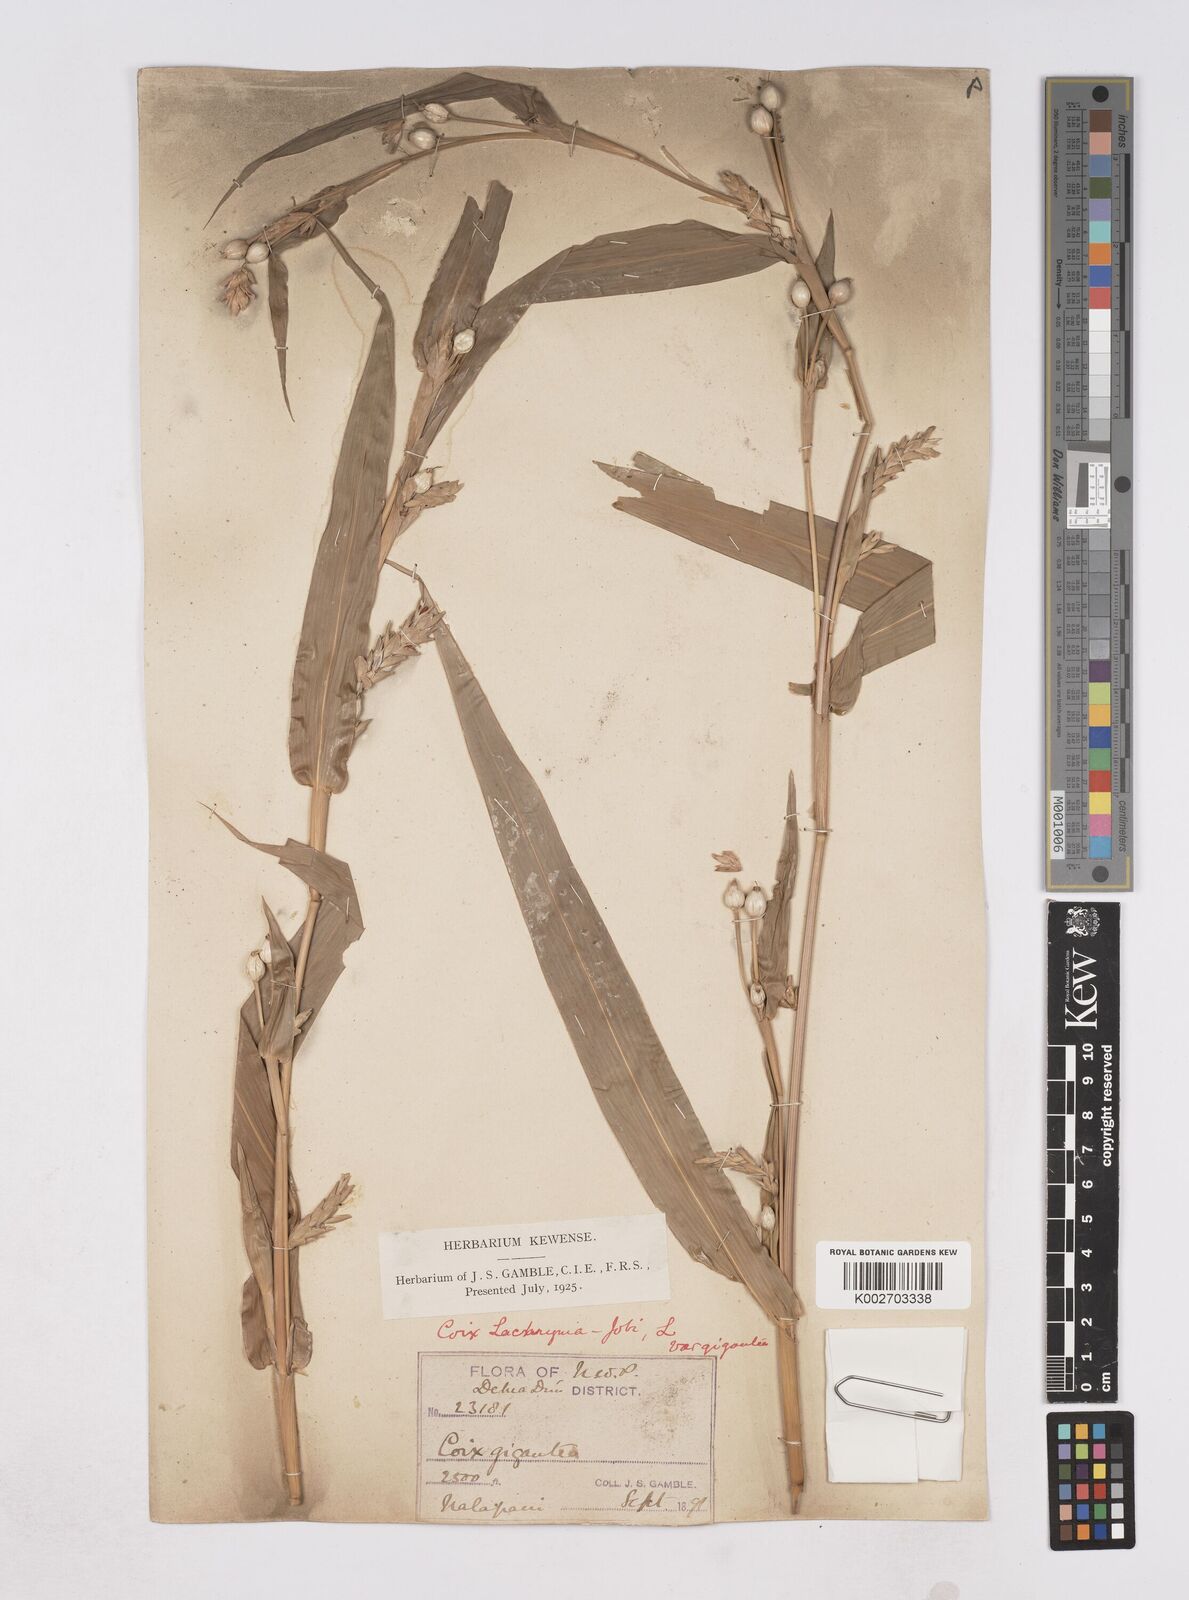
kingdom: Plantae
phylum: Tracheophyta
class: Liliopsida
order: Poales
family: Poaceae
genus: Coix
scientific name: Coix lacryma-jobi
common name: Job's tears
